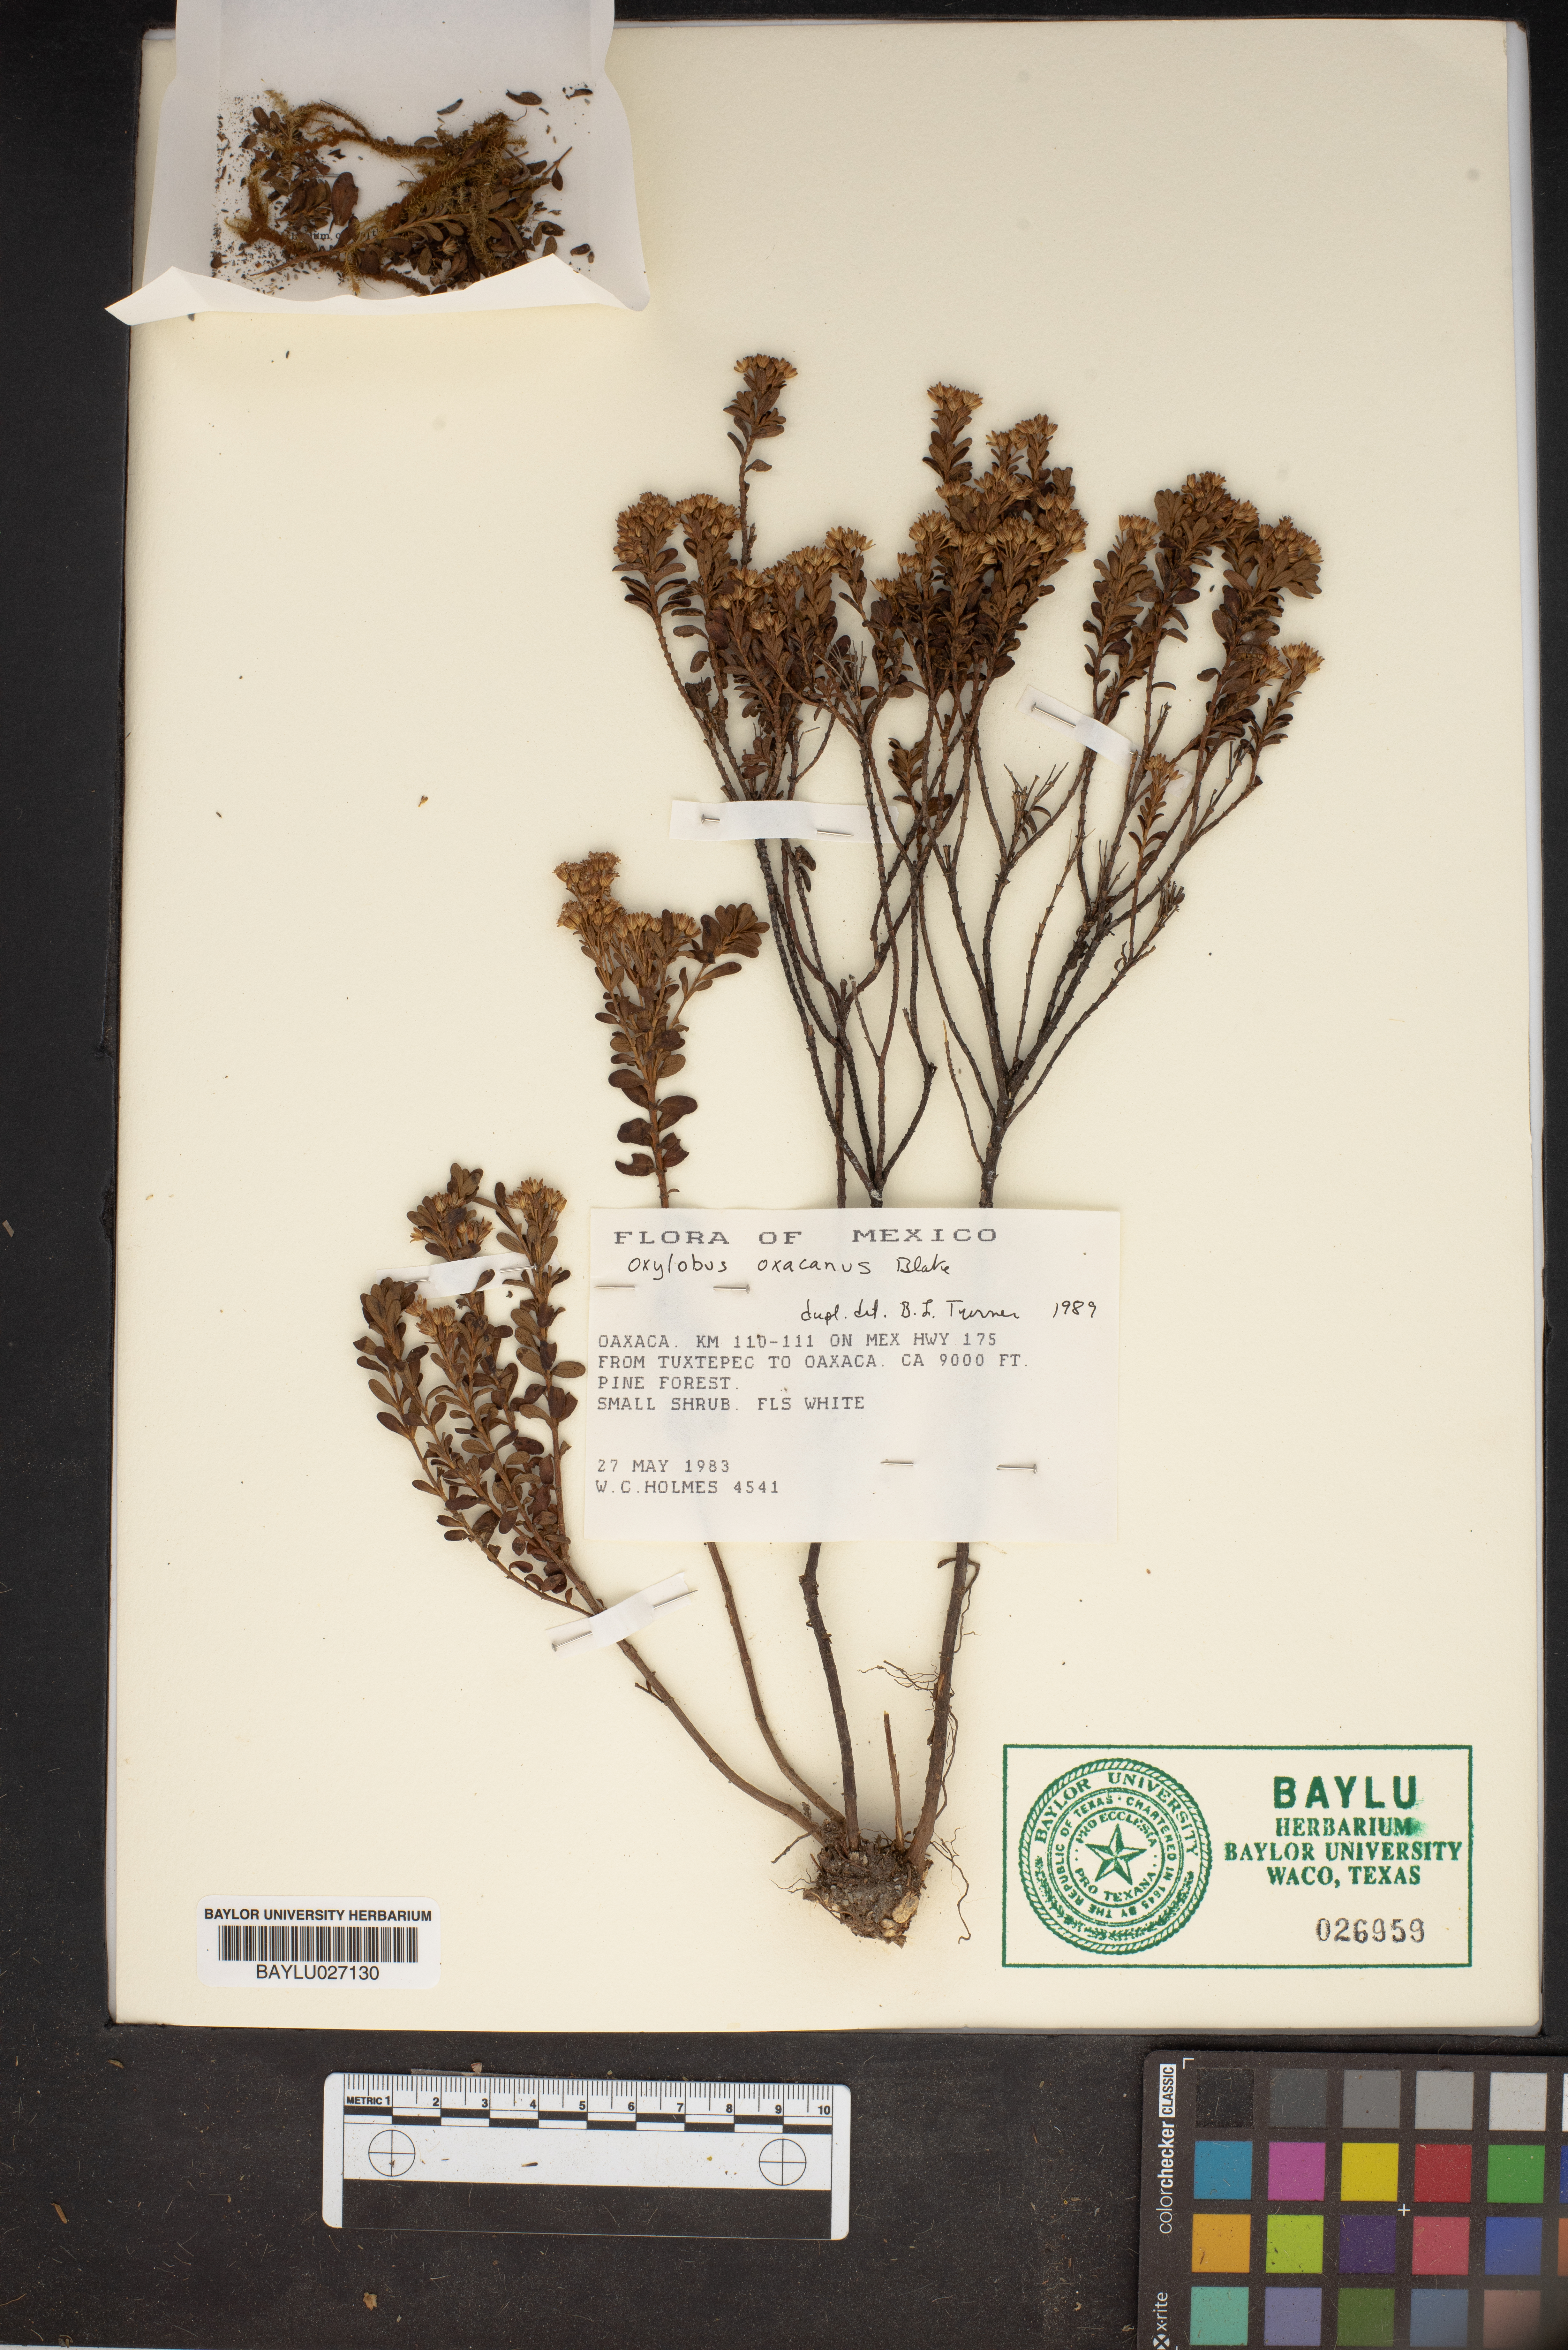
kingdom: Plantae
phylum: Tracheophyta
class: Magnoliopsida
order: Asterales
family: Asteraceae
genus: Oxylobus
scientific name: Oxylobus oaxacanus
